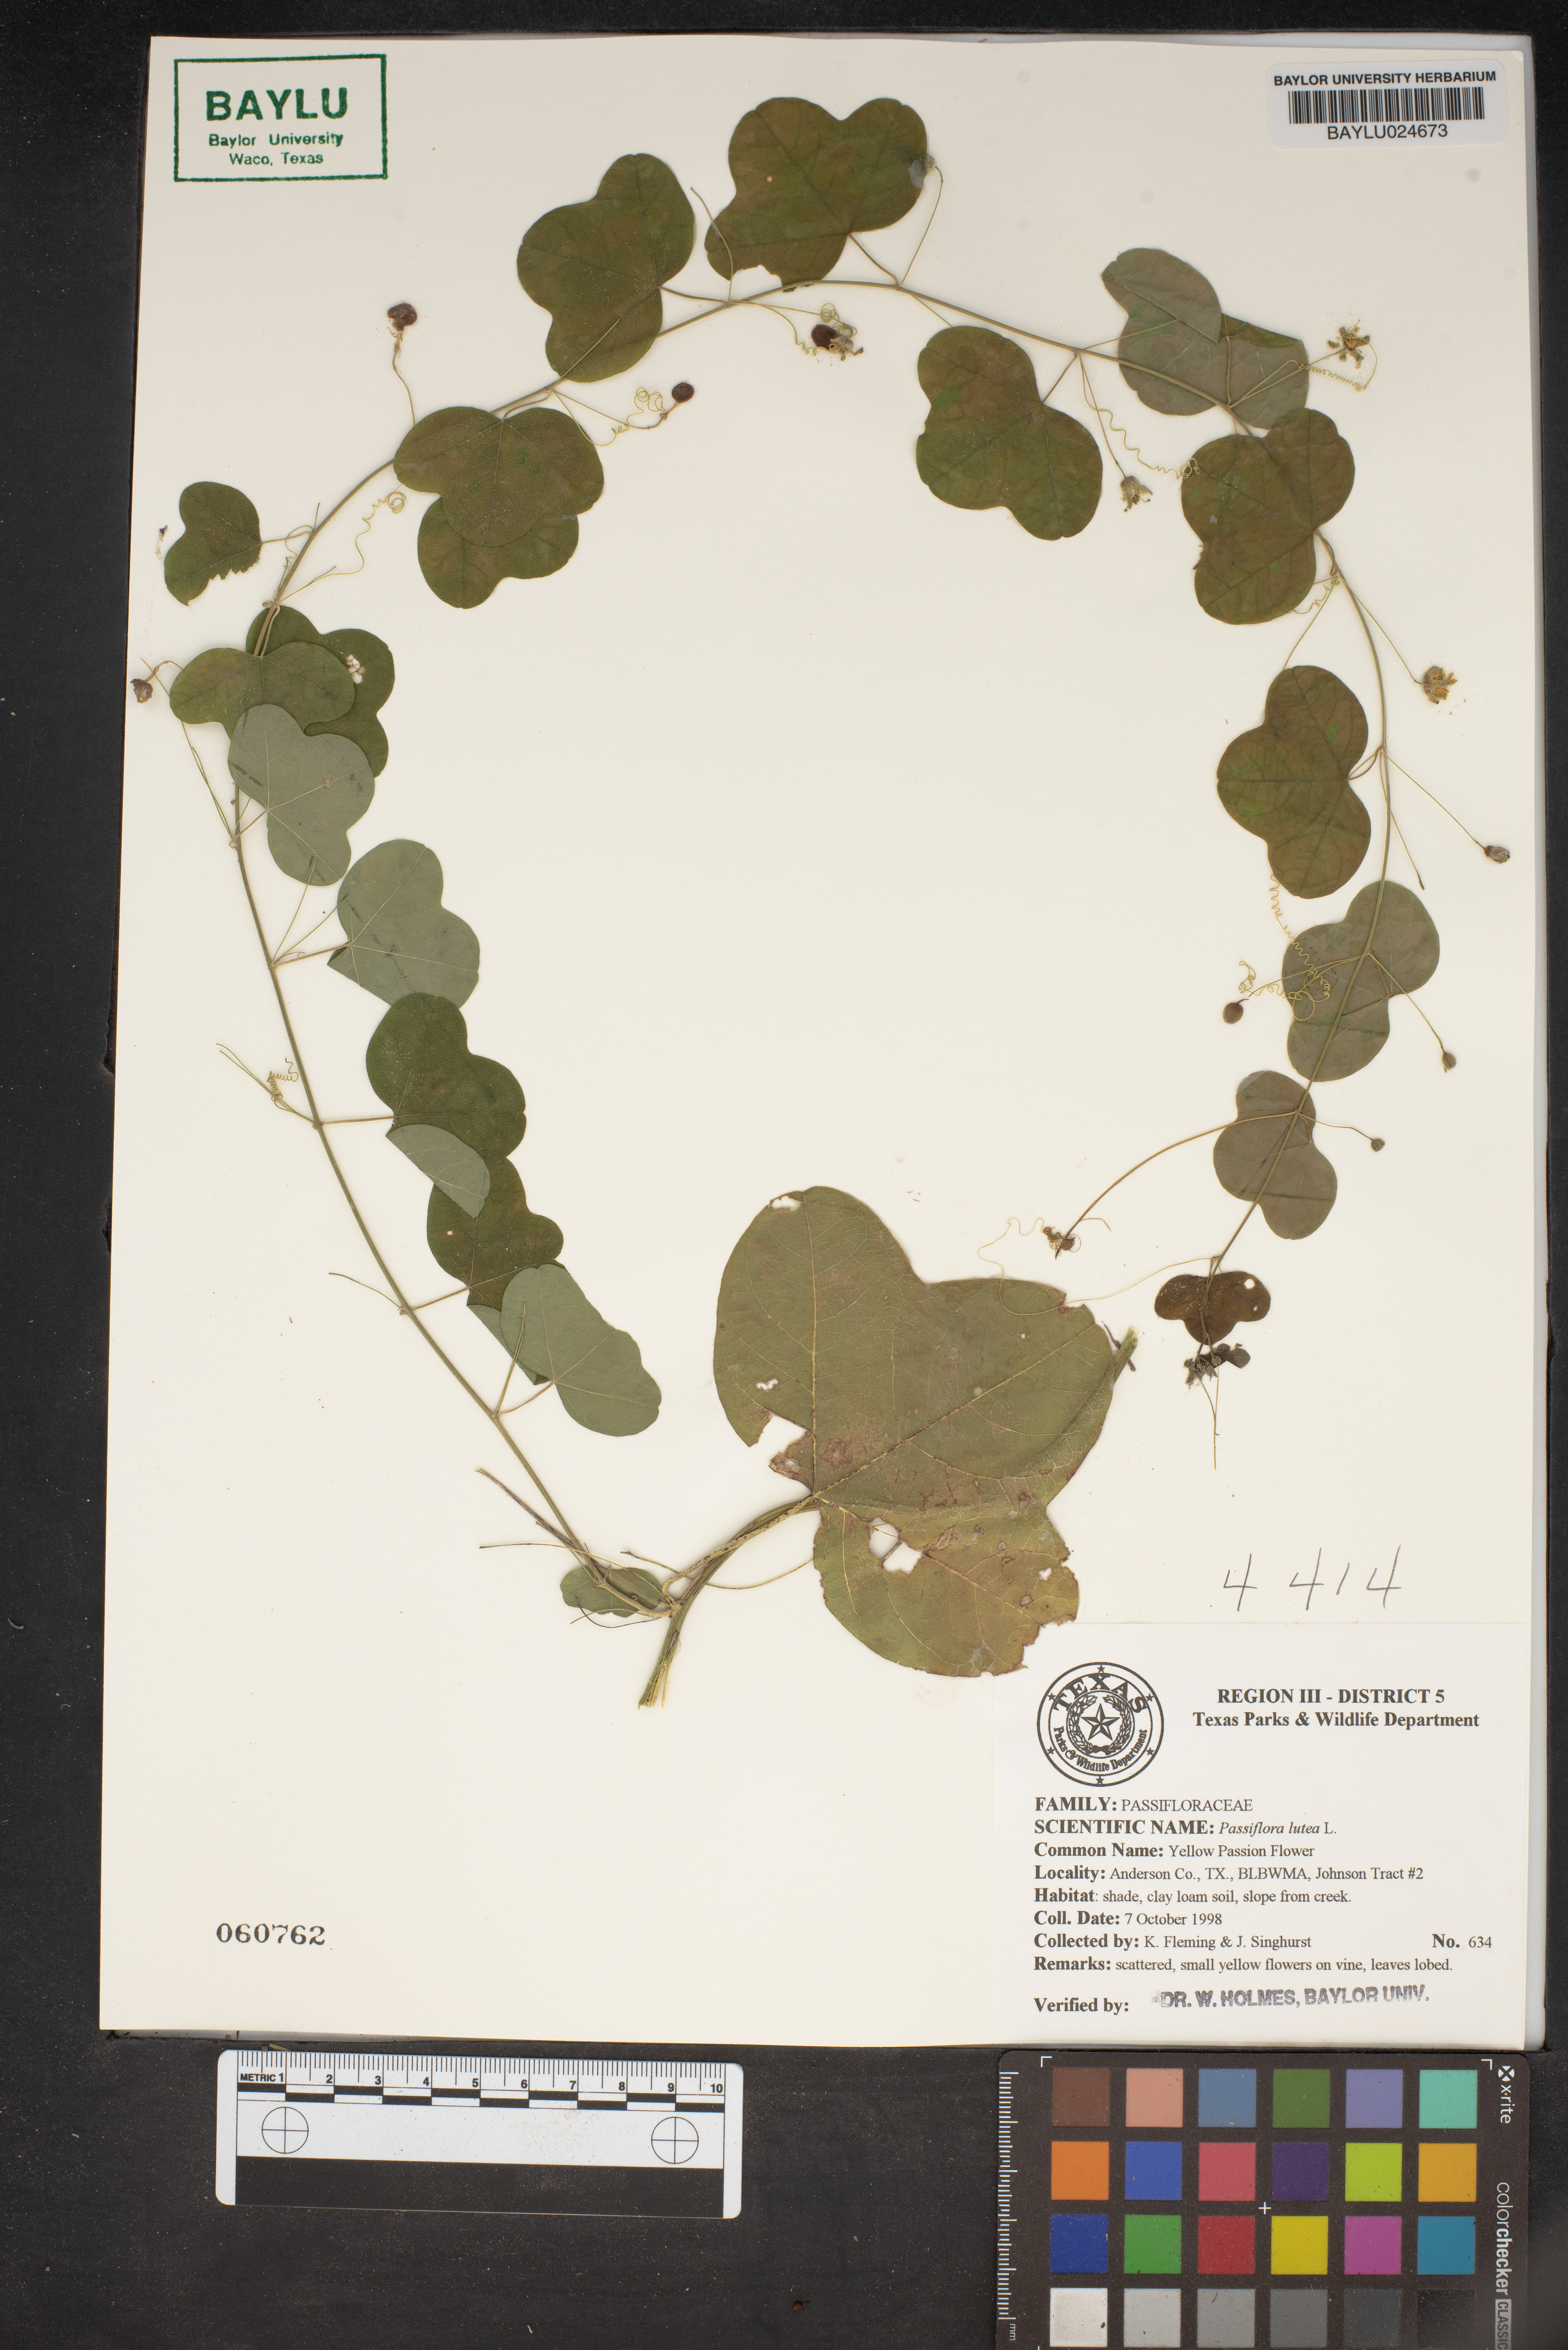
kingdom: Plantae
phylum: Tracheophyta
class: Magnoliopsida
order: Malpighiales
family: Passifloraceae
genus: Passiflora
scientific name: Passiflora lutea
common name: Yellow passionflower
